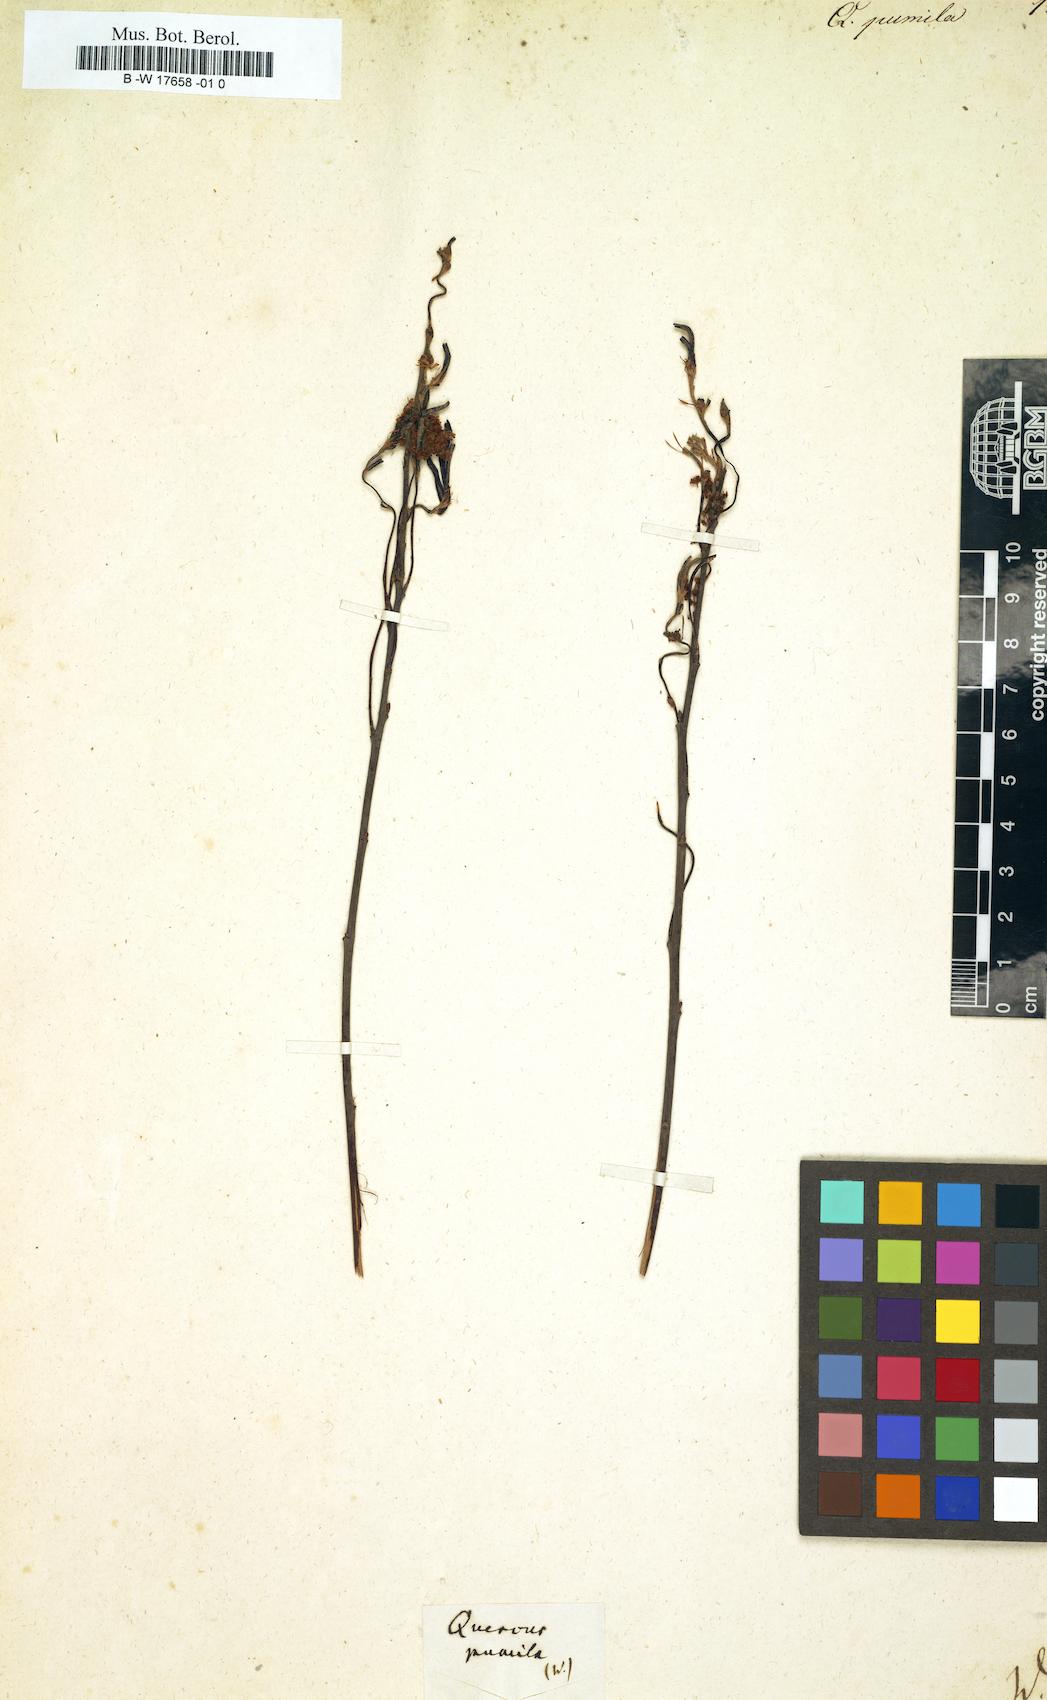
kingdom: Plantae
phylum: Tracheophyta
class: Magnoliopsida
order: Fagales
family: Fagaceae
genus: Quercus
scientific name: Quercus pumila
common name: Runner oak
